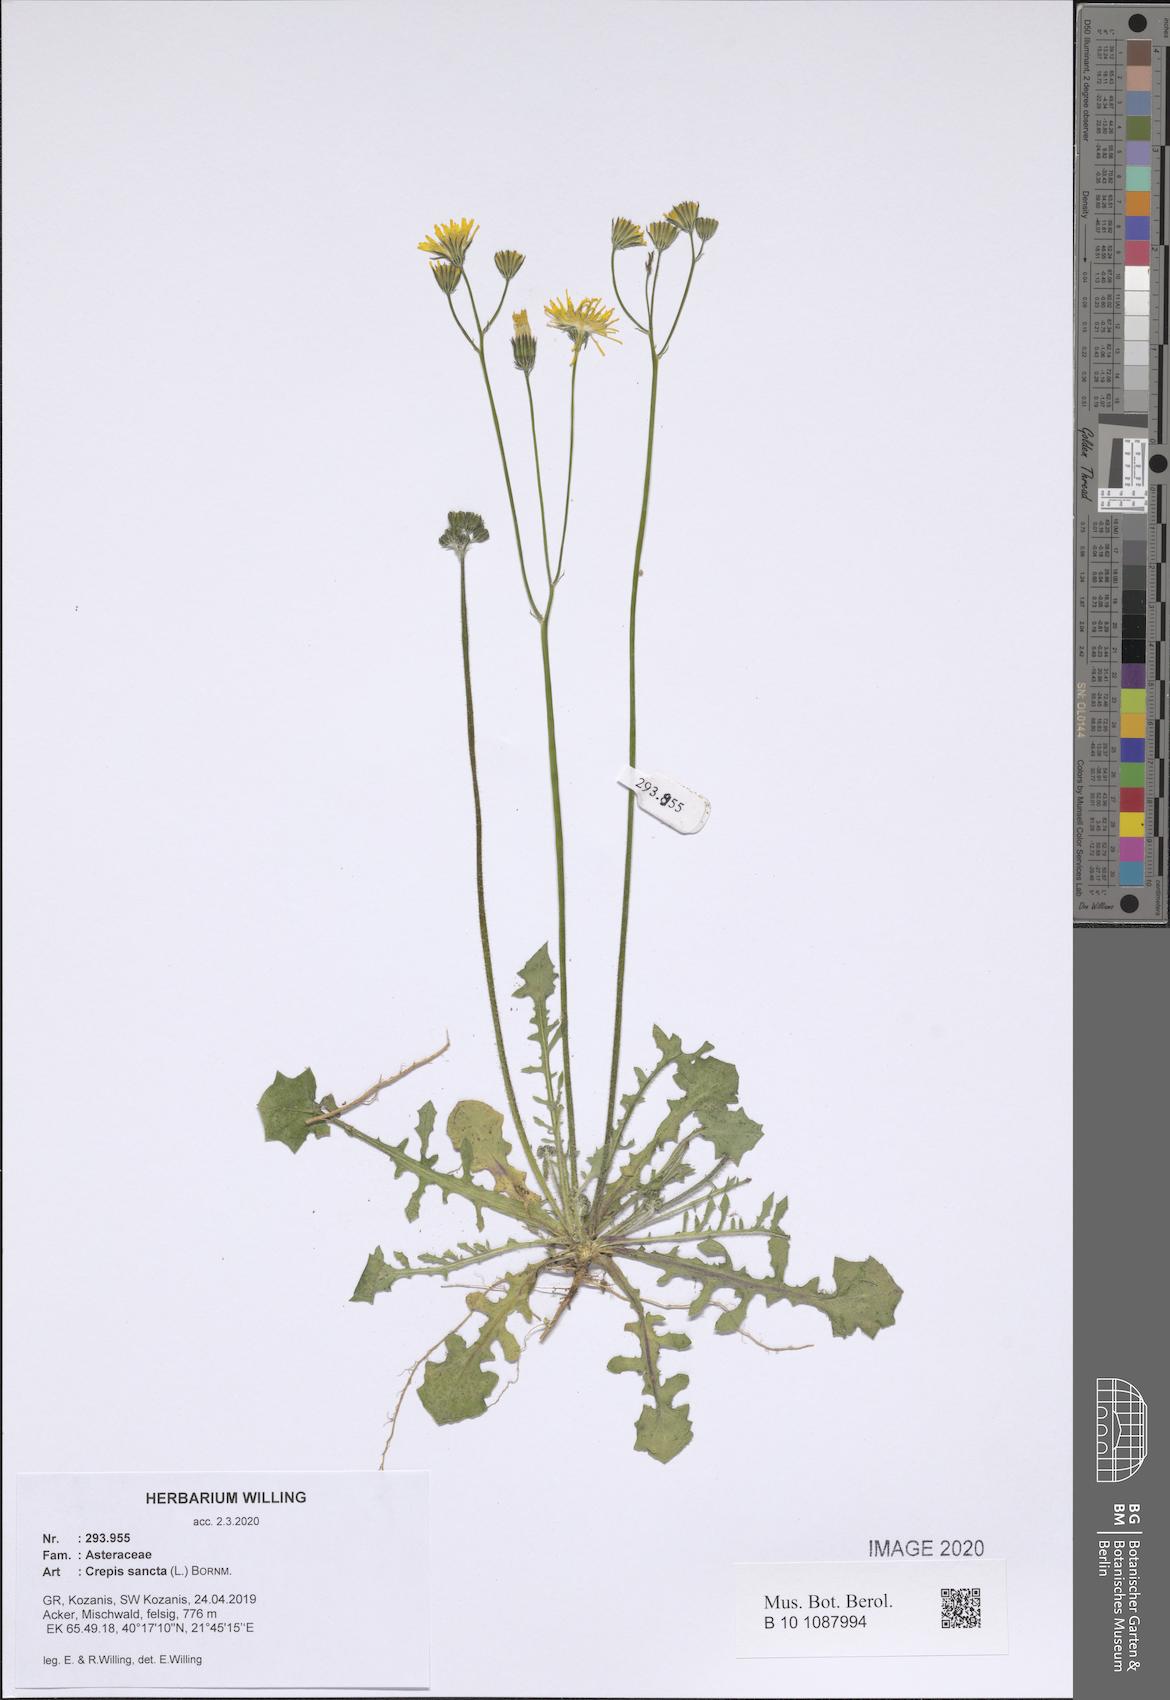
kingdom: Plantae
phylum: Tracheophyta
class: Magnoliopsida
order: Asterales
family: Asteraceae
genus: Crepis
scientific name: Crepis sancta
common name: Hawk's-beard
